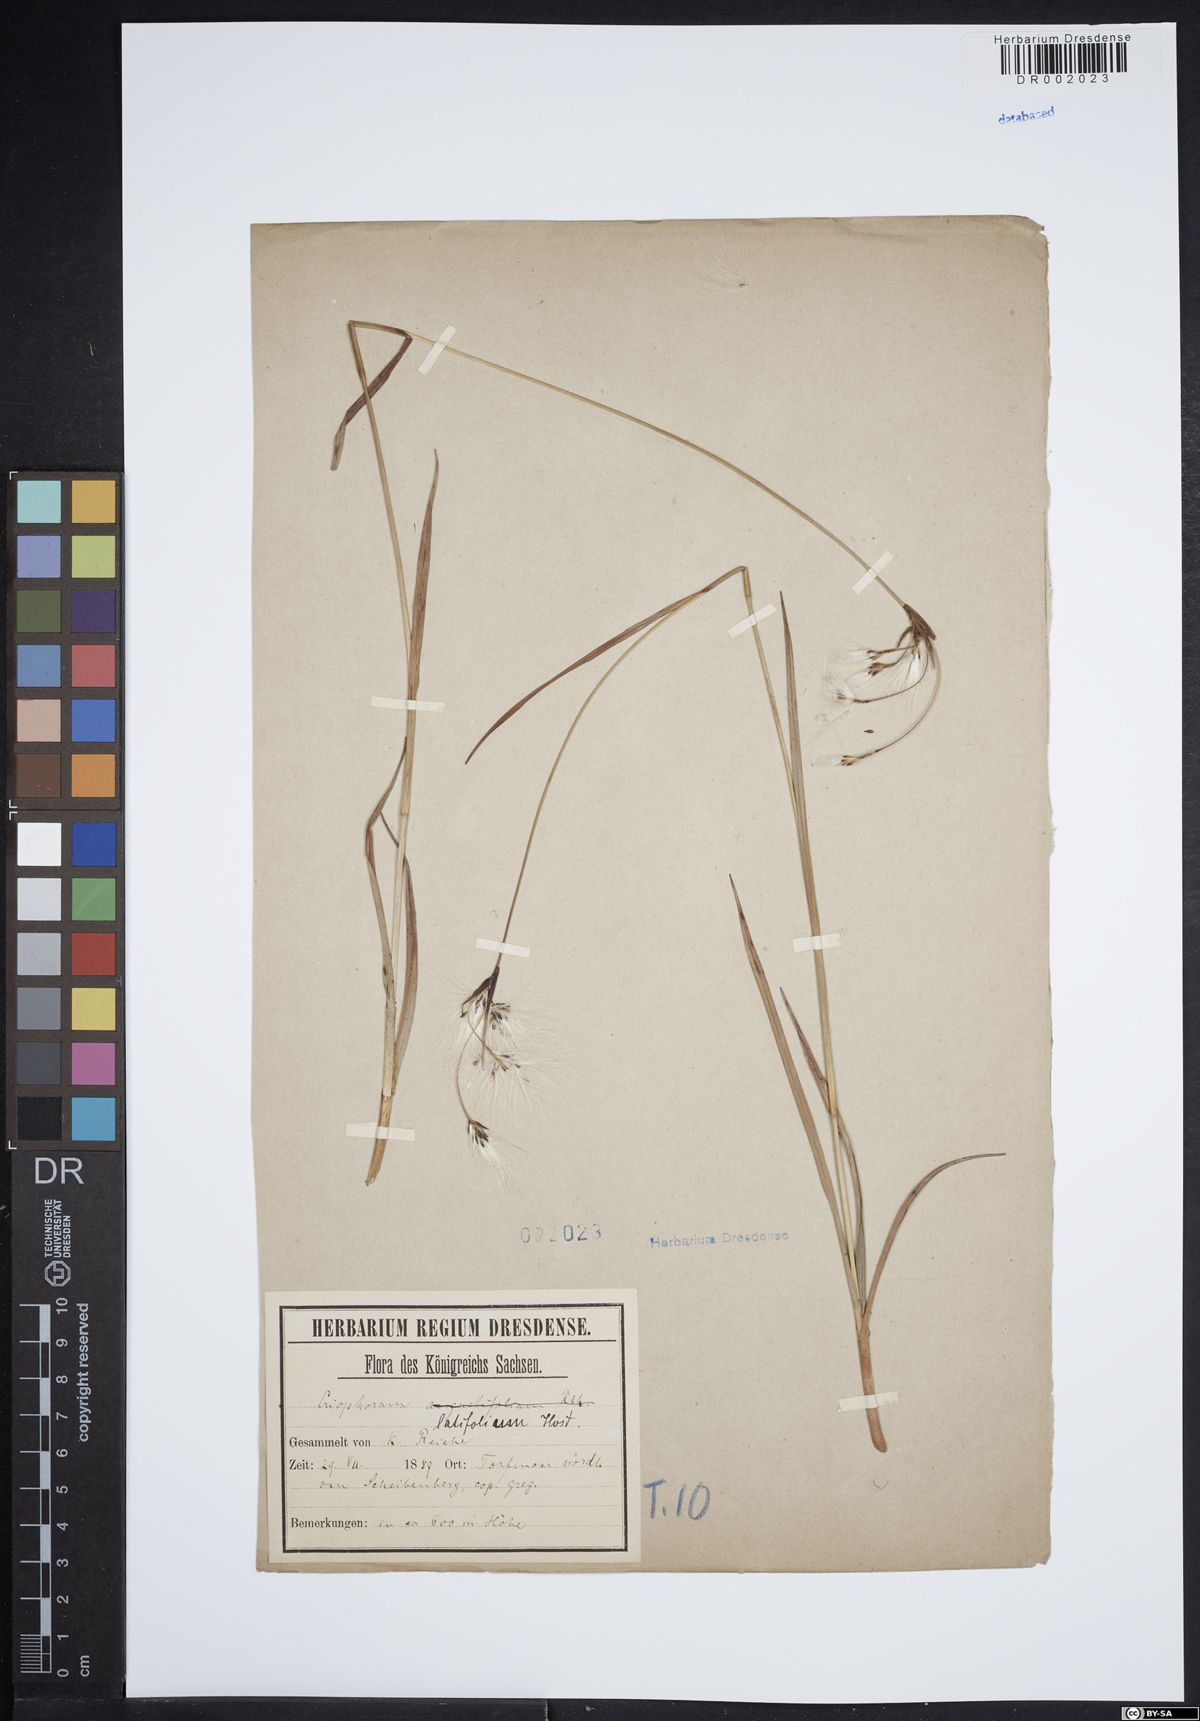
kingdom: Plantae
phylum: Tracheophyta
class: Liliopsida
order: Poales
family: Cyperaceae
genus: Eriophorum
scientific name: Eriophorum latifolium
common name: Broad-leaved cottongrass
